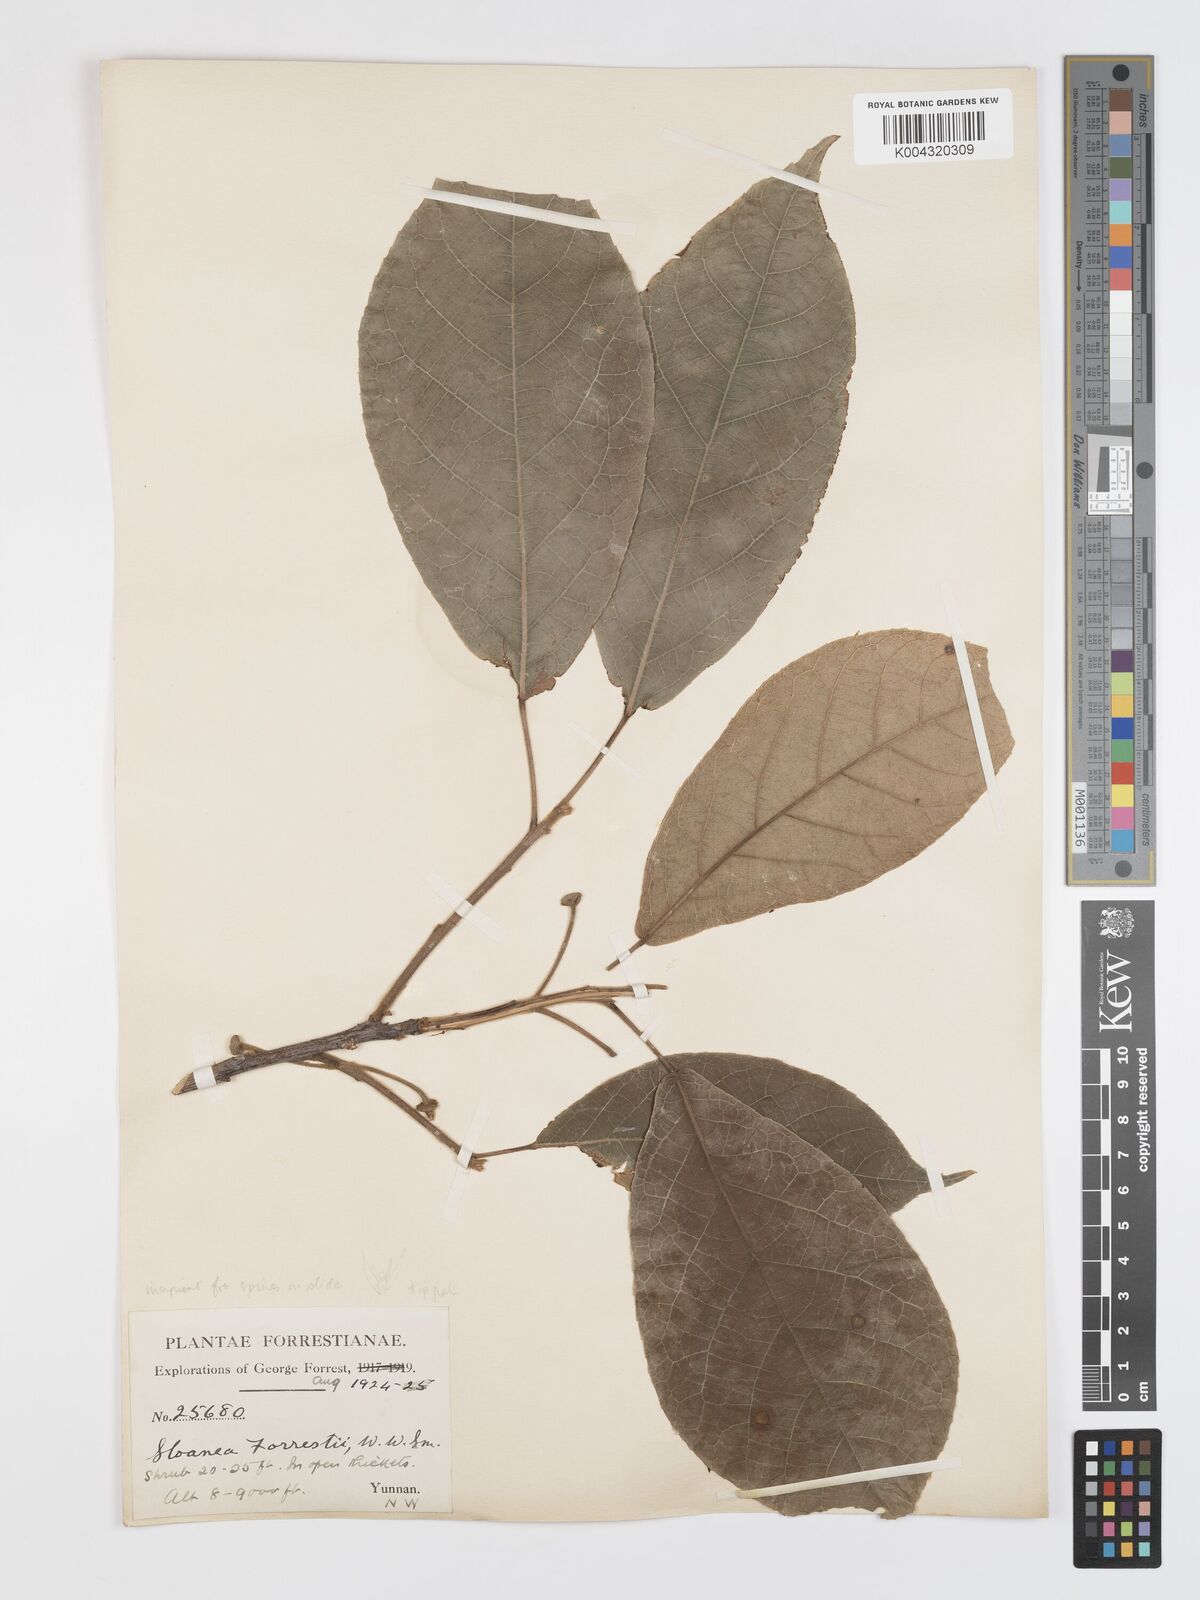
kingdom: Plantae
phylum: Tracheophyta
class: Magnoliopsida
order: Oxalidales
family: Elaeocarpaceae
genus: Sloanea
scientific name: Sloanea sterculiacea
